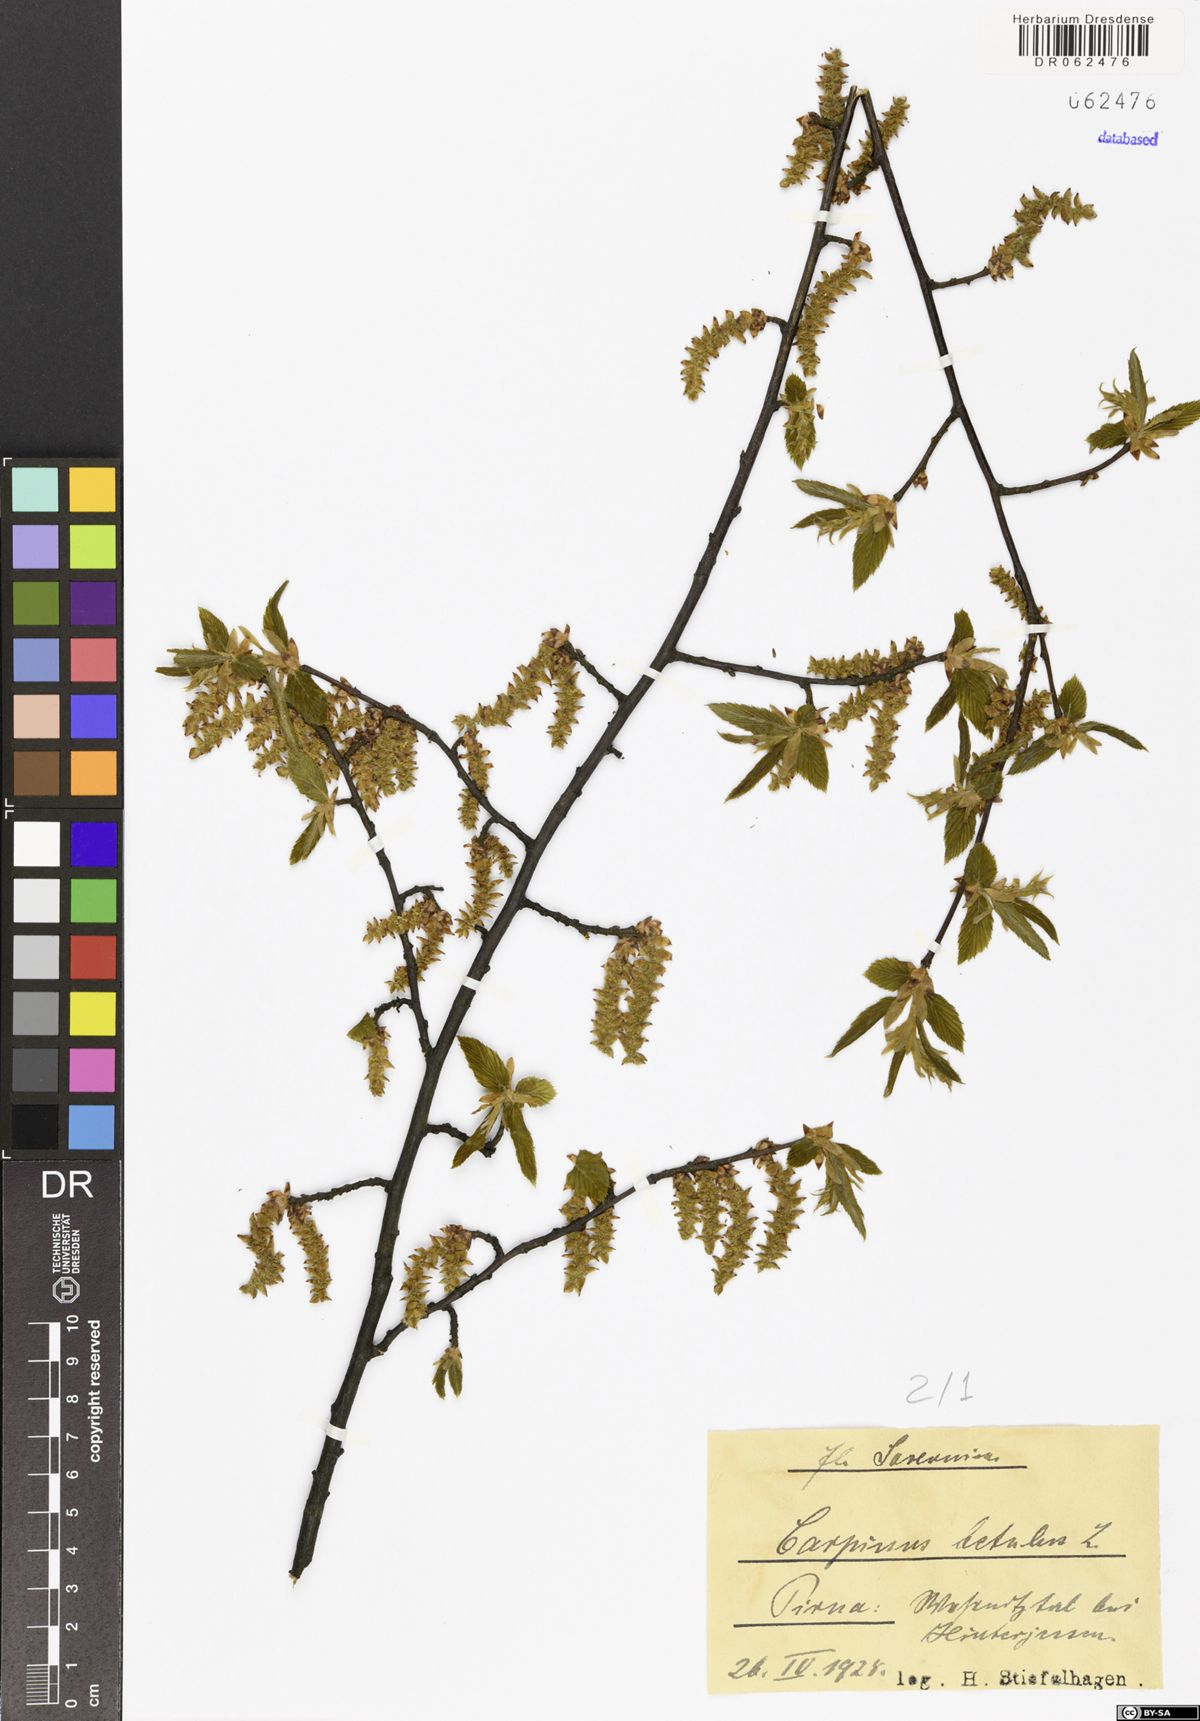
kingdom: Plantae
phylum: Tracheophyta
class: Magnoliopsida
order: Fagales
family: Betulaceae
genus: Carpinus
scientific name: Carpinus betulus
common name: Hornbeam
